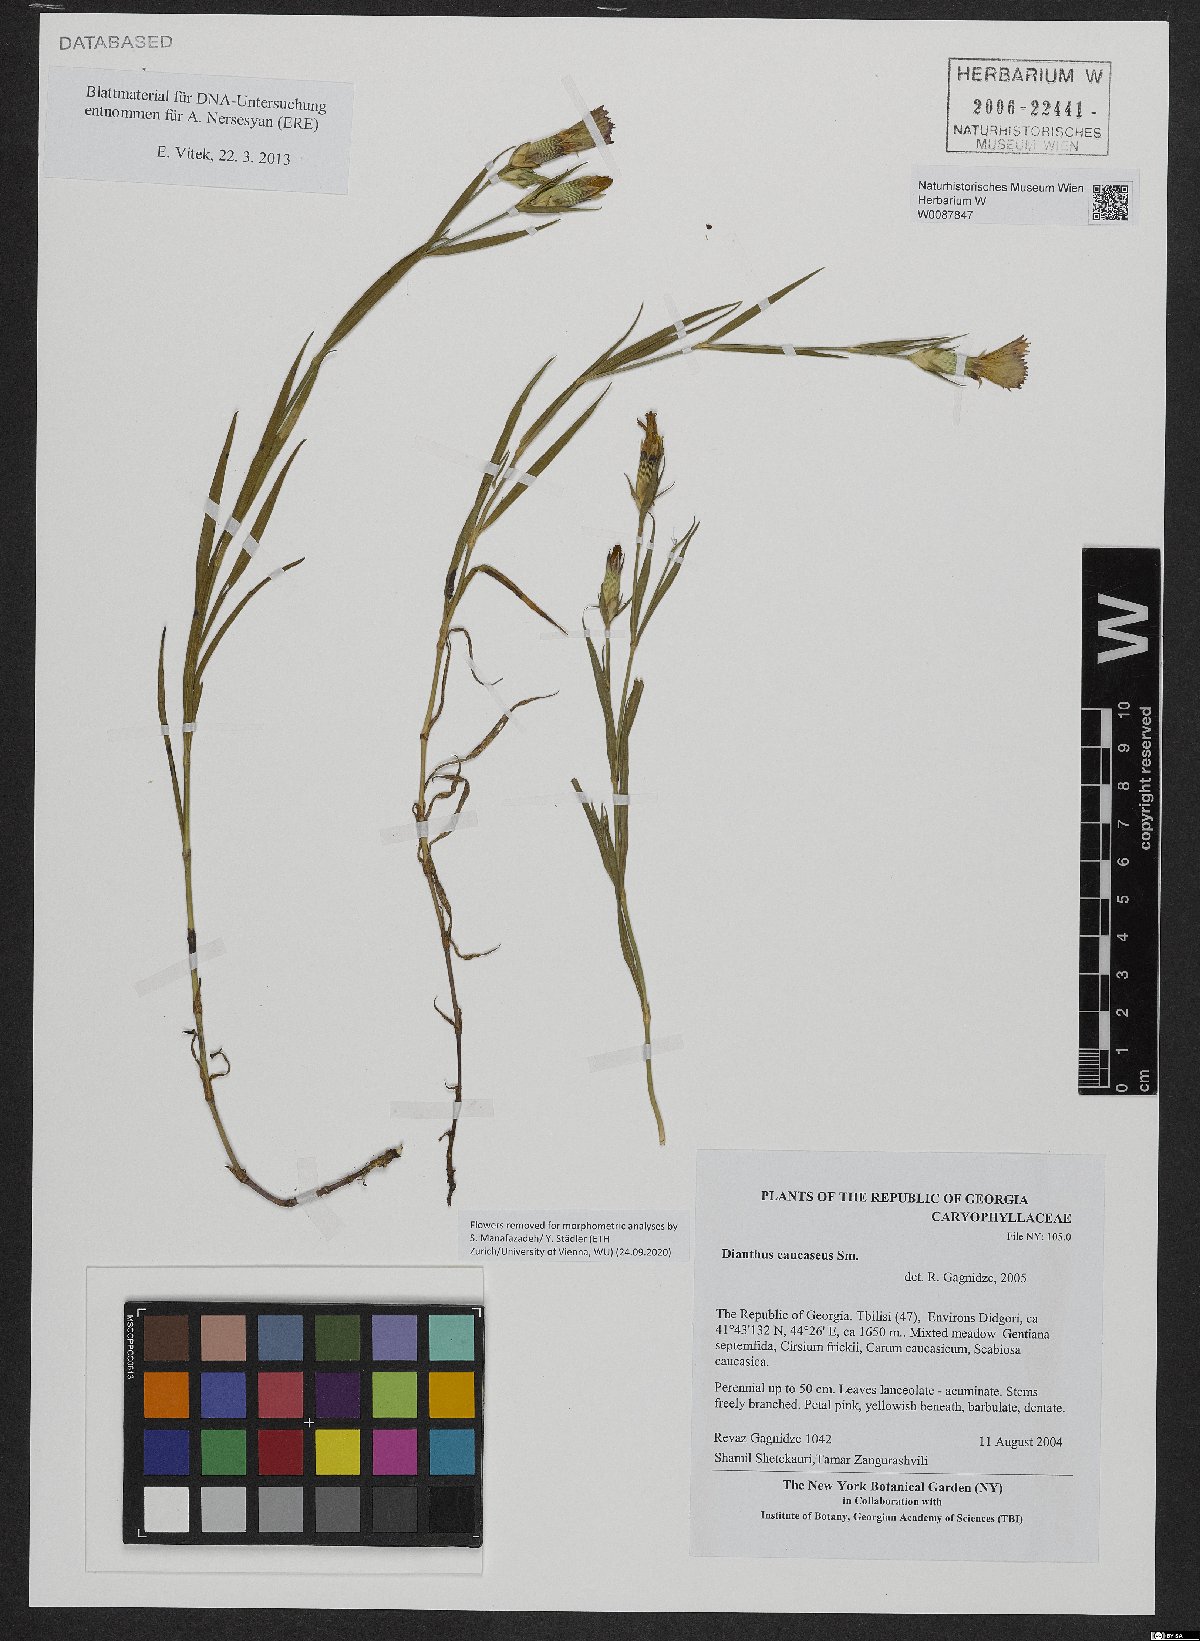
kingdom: Plantae
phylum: Tracheophyta
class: Magnoliopsida
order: Caryophyllales
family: Caryophyllaceae
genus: Dianthus
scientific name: Dianthus caucaseus
